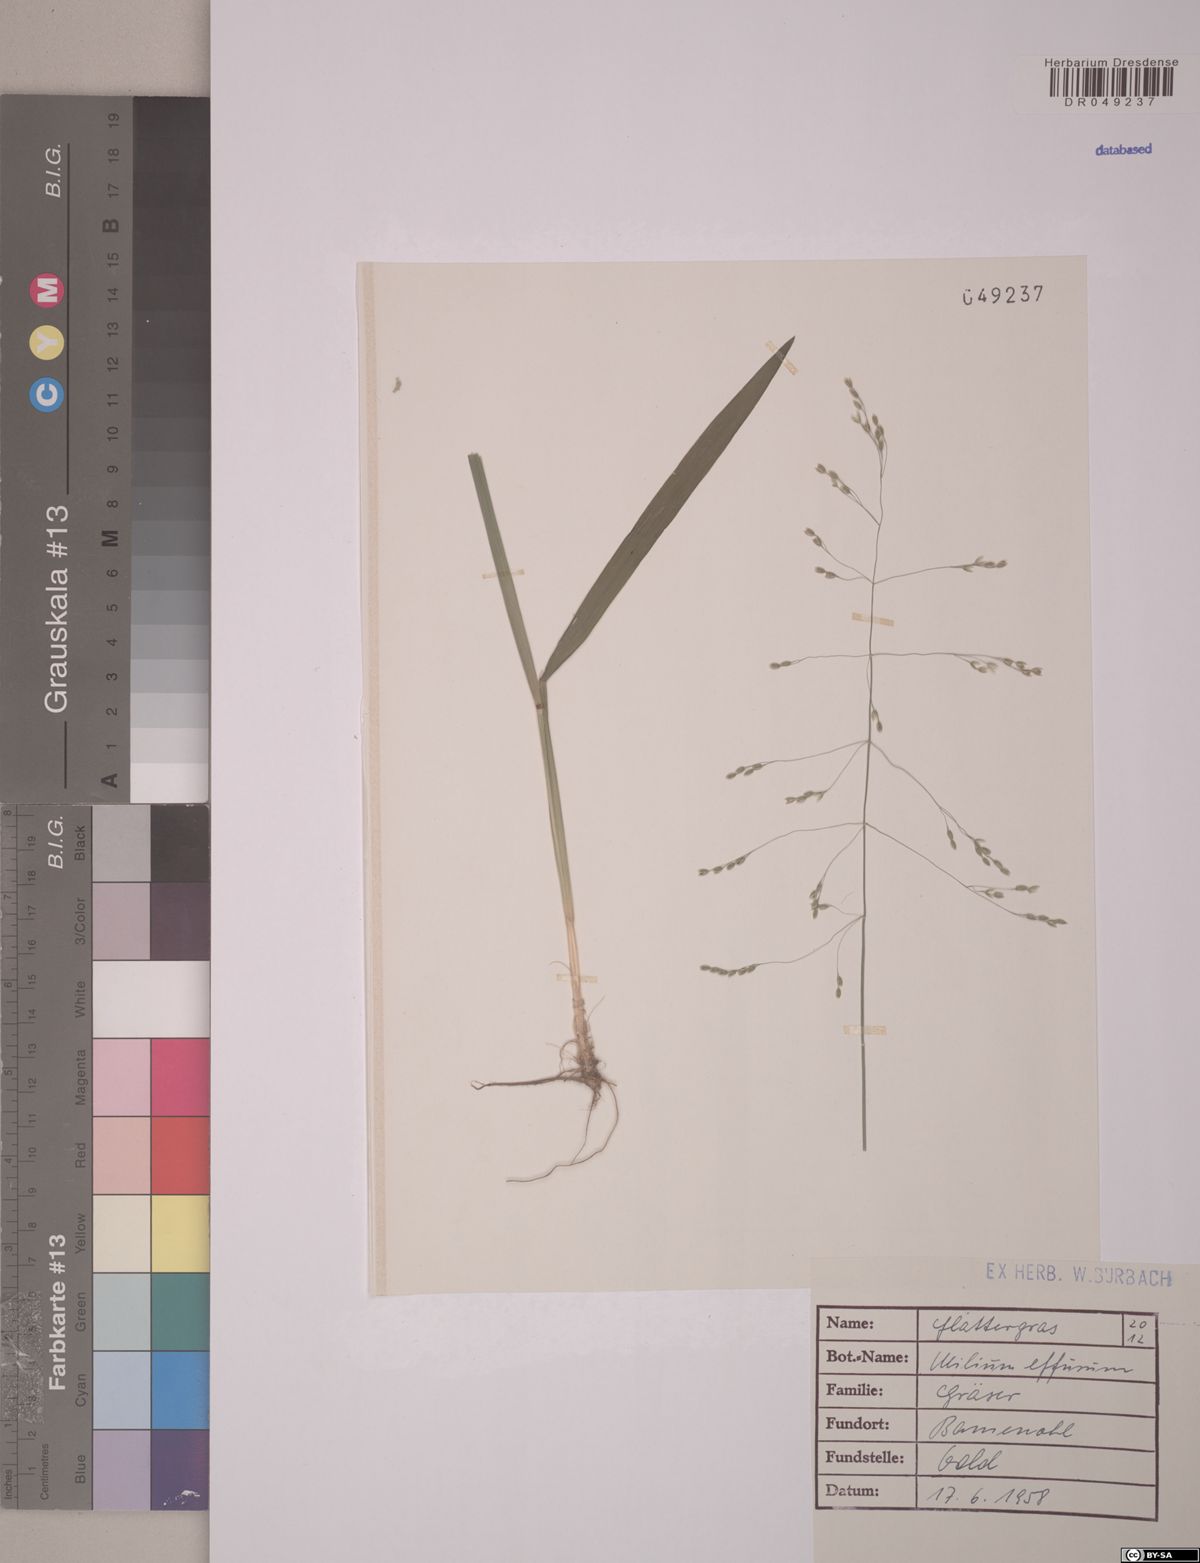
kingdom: Plantae
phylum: Tracheophyta
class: Liliopsida
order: Poales
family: Poaceae
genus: Milium
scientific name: Milium effusum
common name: Wood millet
